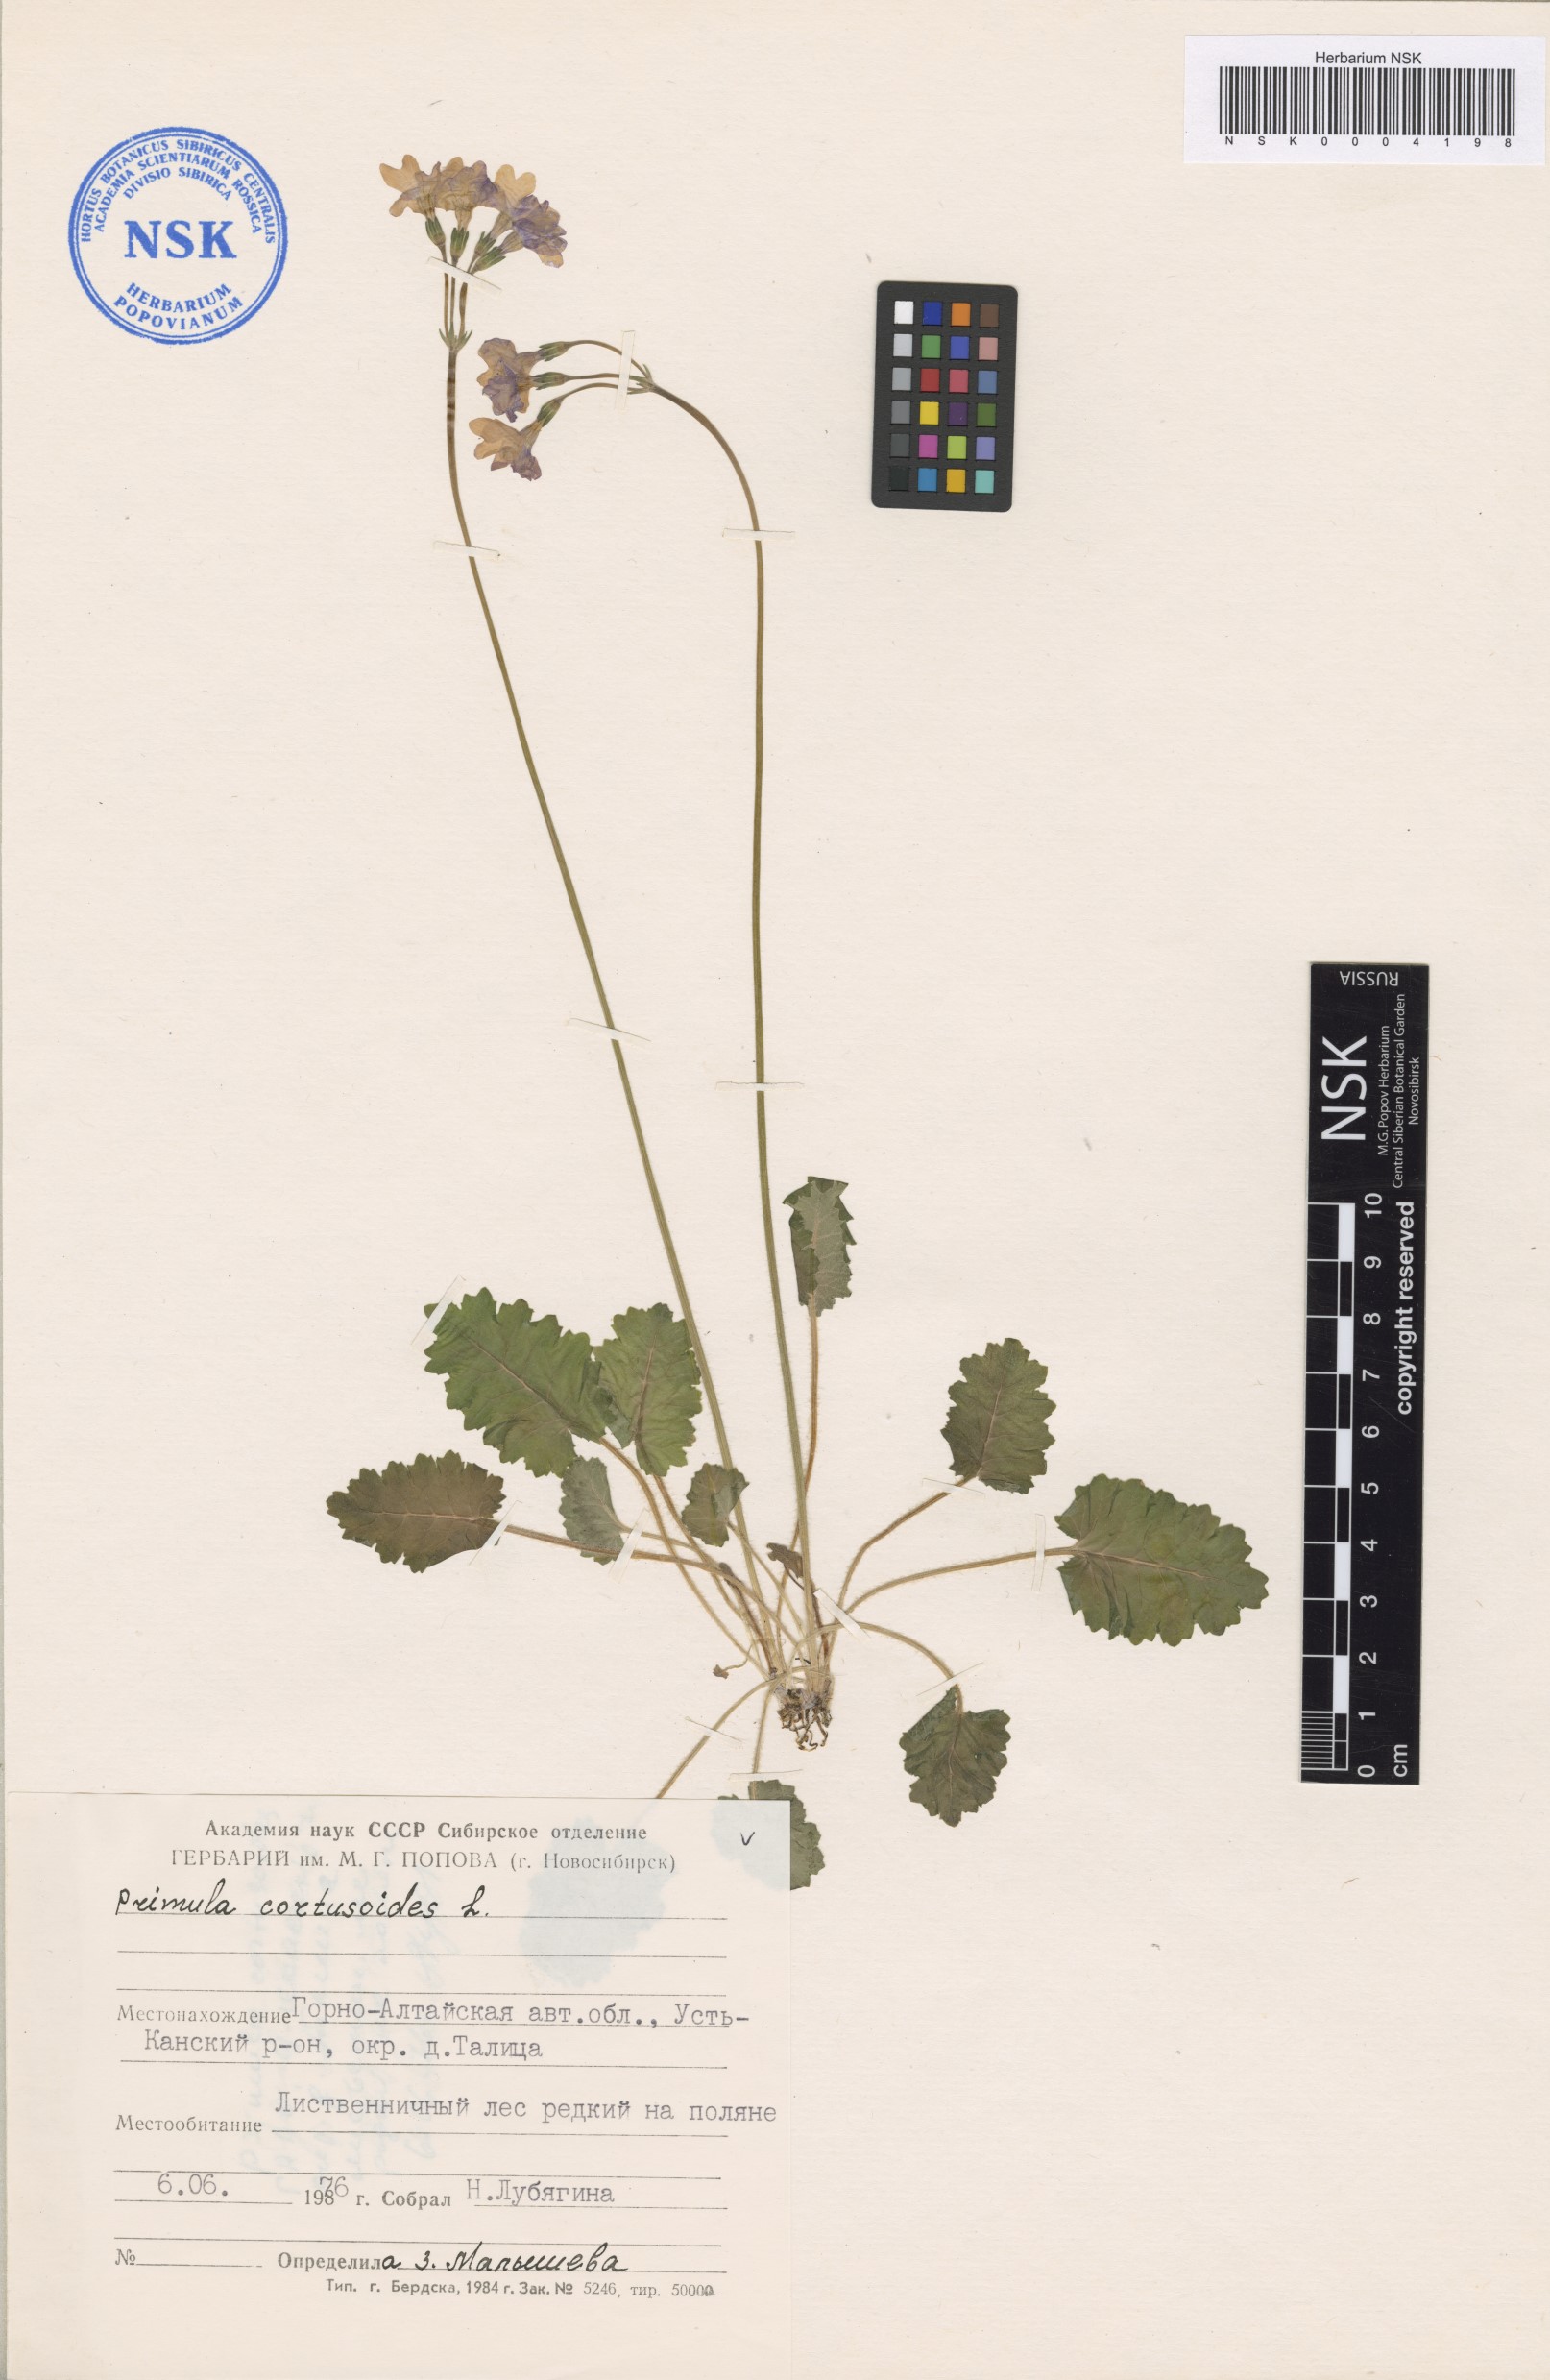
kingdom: Plantae
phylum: Tracheophyta
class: Magnoliopsida
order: Ericales
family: Primulaceae
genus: Primula
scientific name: Primula cortusoides
